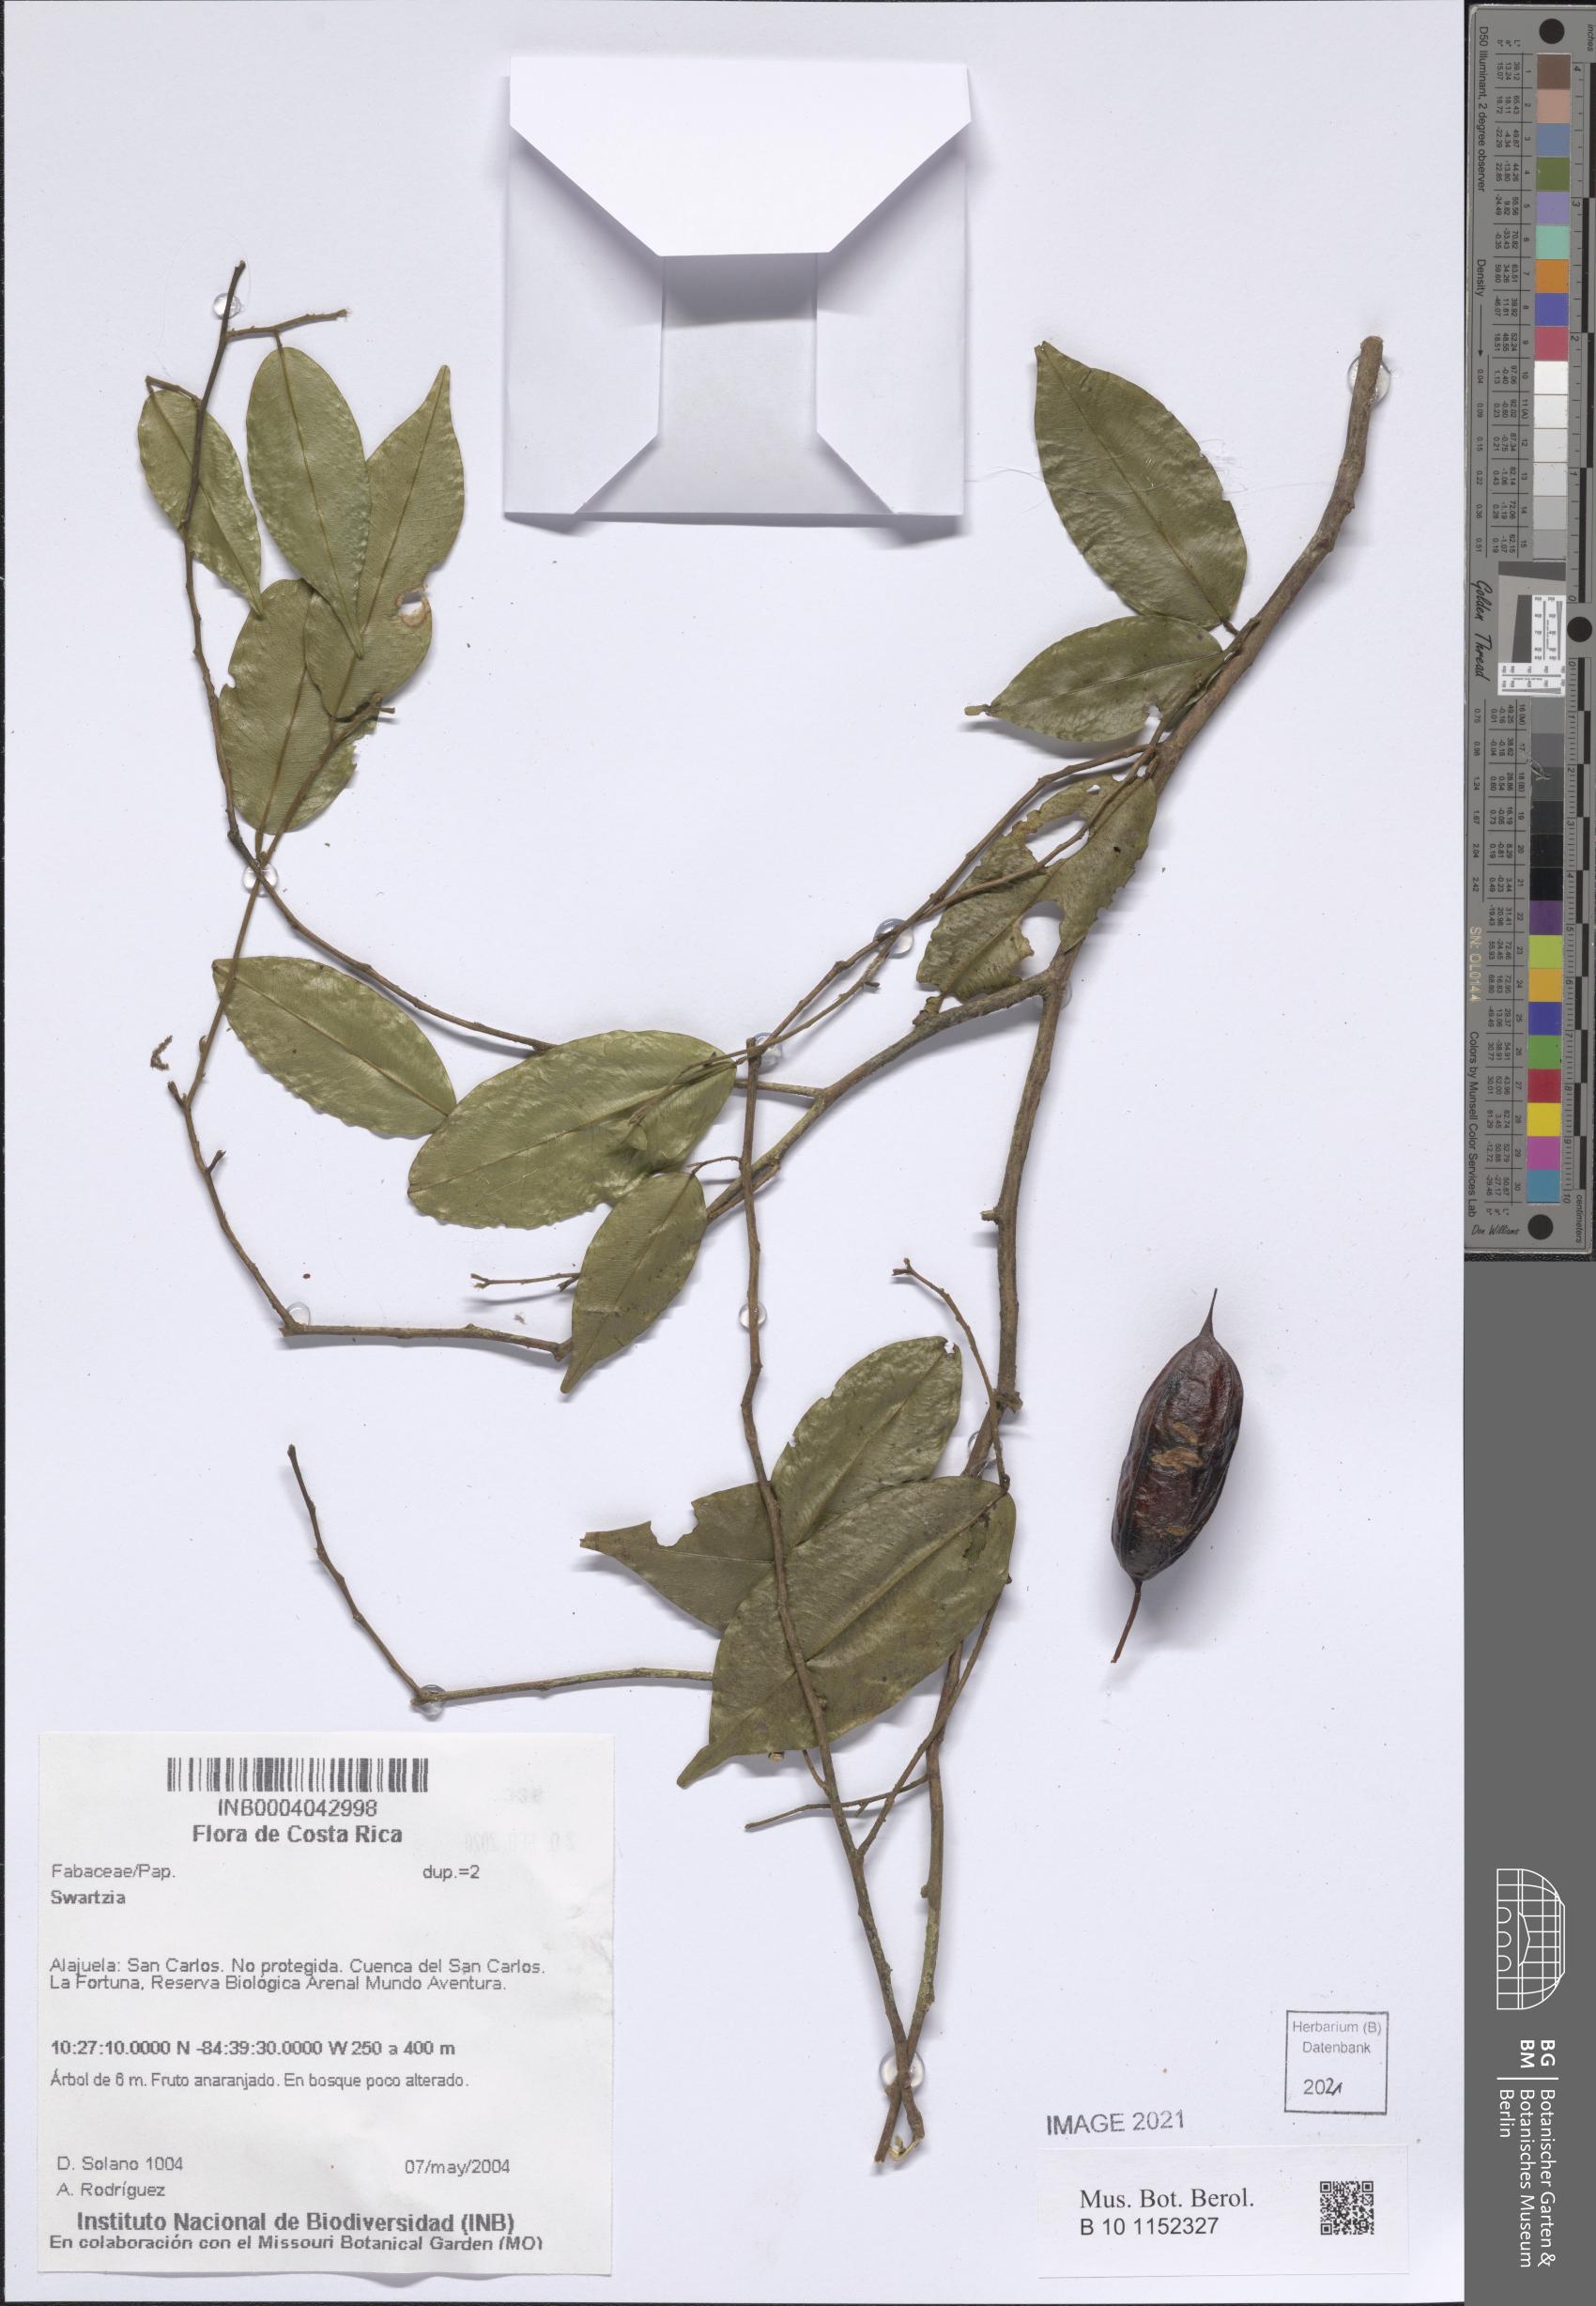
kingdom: Plantae
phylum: Tracheophyta
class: Magnoliopsida
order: Fabales
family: Fabaceae
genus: Swartzia
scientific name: Swartzia
